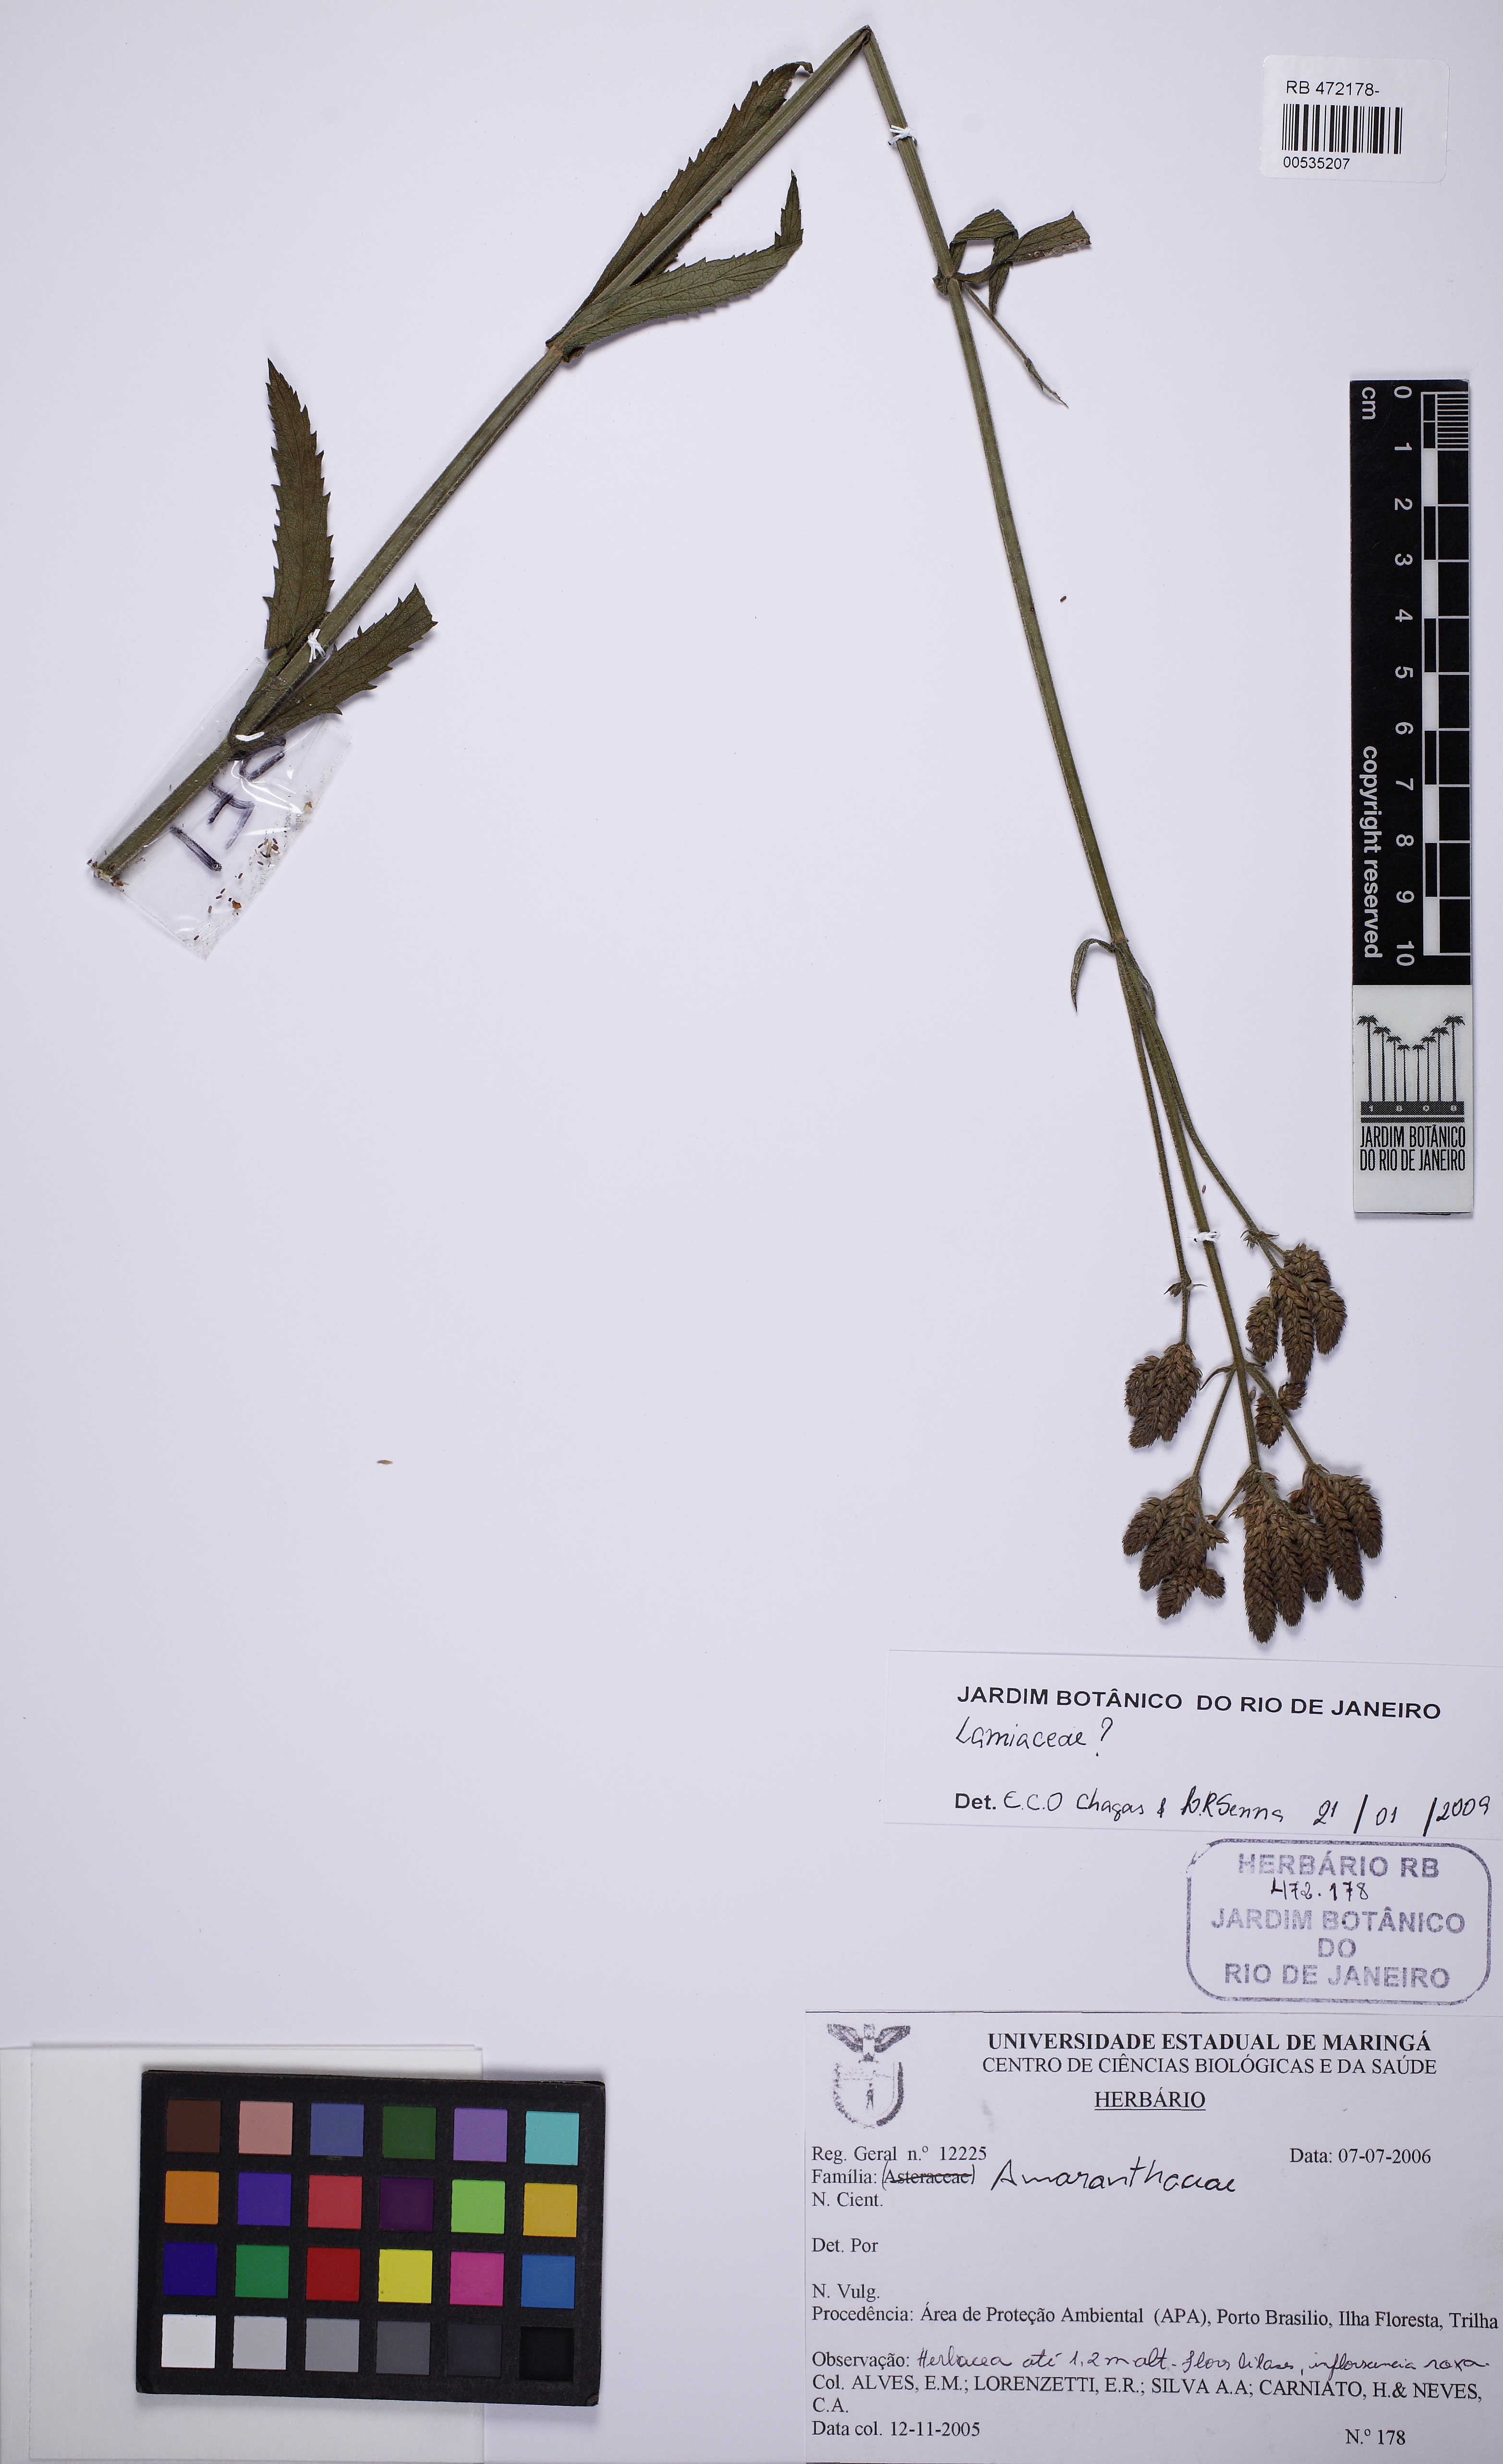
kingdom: Plantae
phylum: Tracheophyta
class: Magnoliopsida
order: Lamiales
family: Verbenaceae
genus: Verbena
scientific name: Verbena
